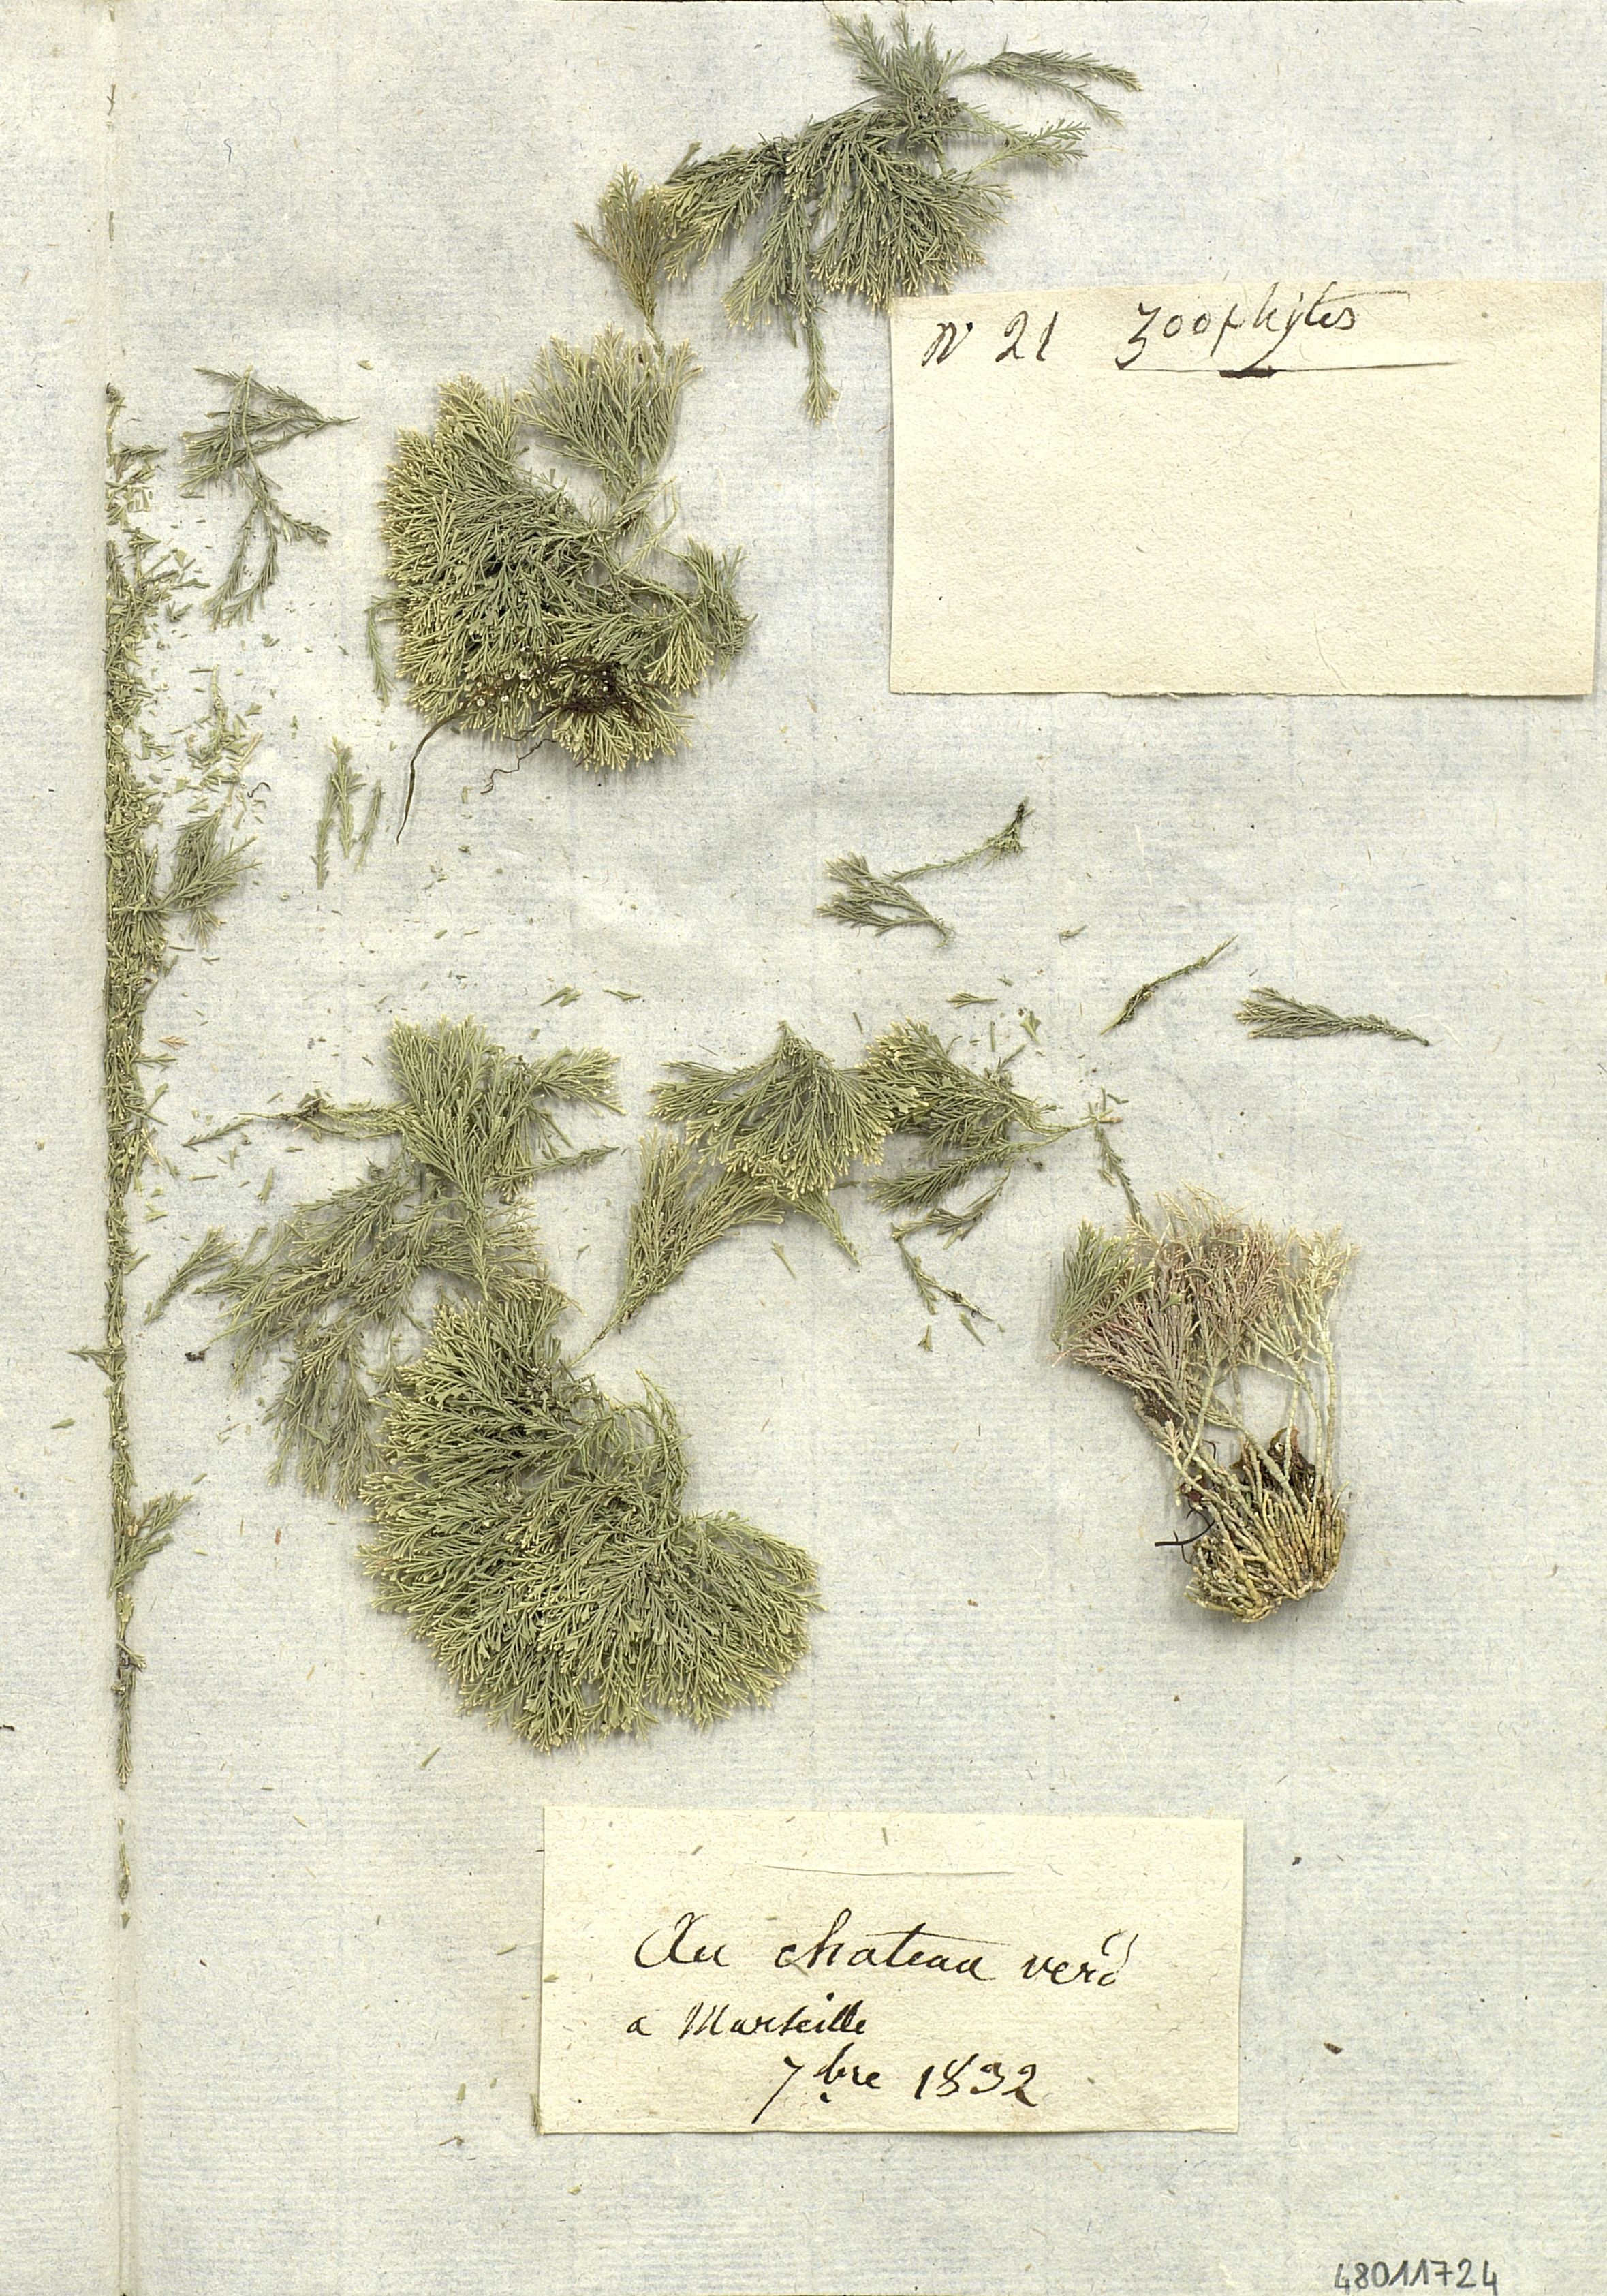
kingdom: Plantae
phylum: Rhodophyta
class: Florideophyceae
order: Corallinales
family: Corallinaceae
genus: Ellisolandia
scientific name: Ellisolandia elongata
